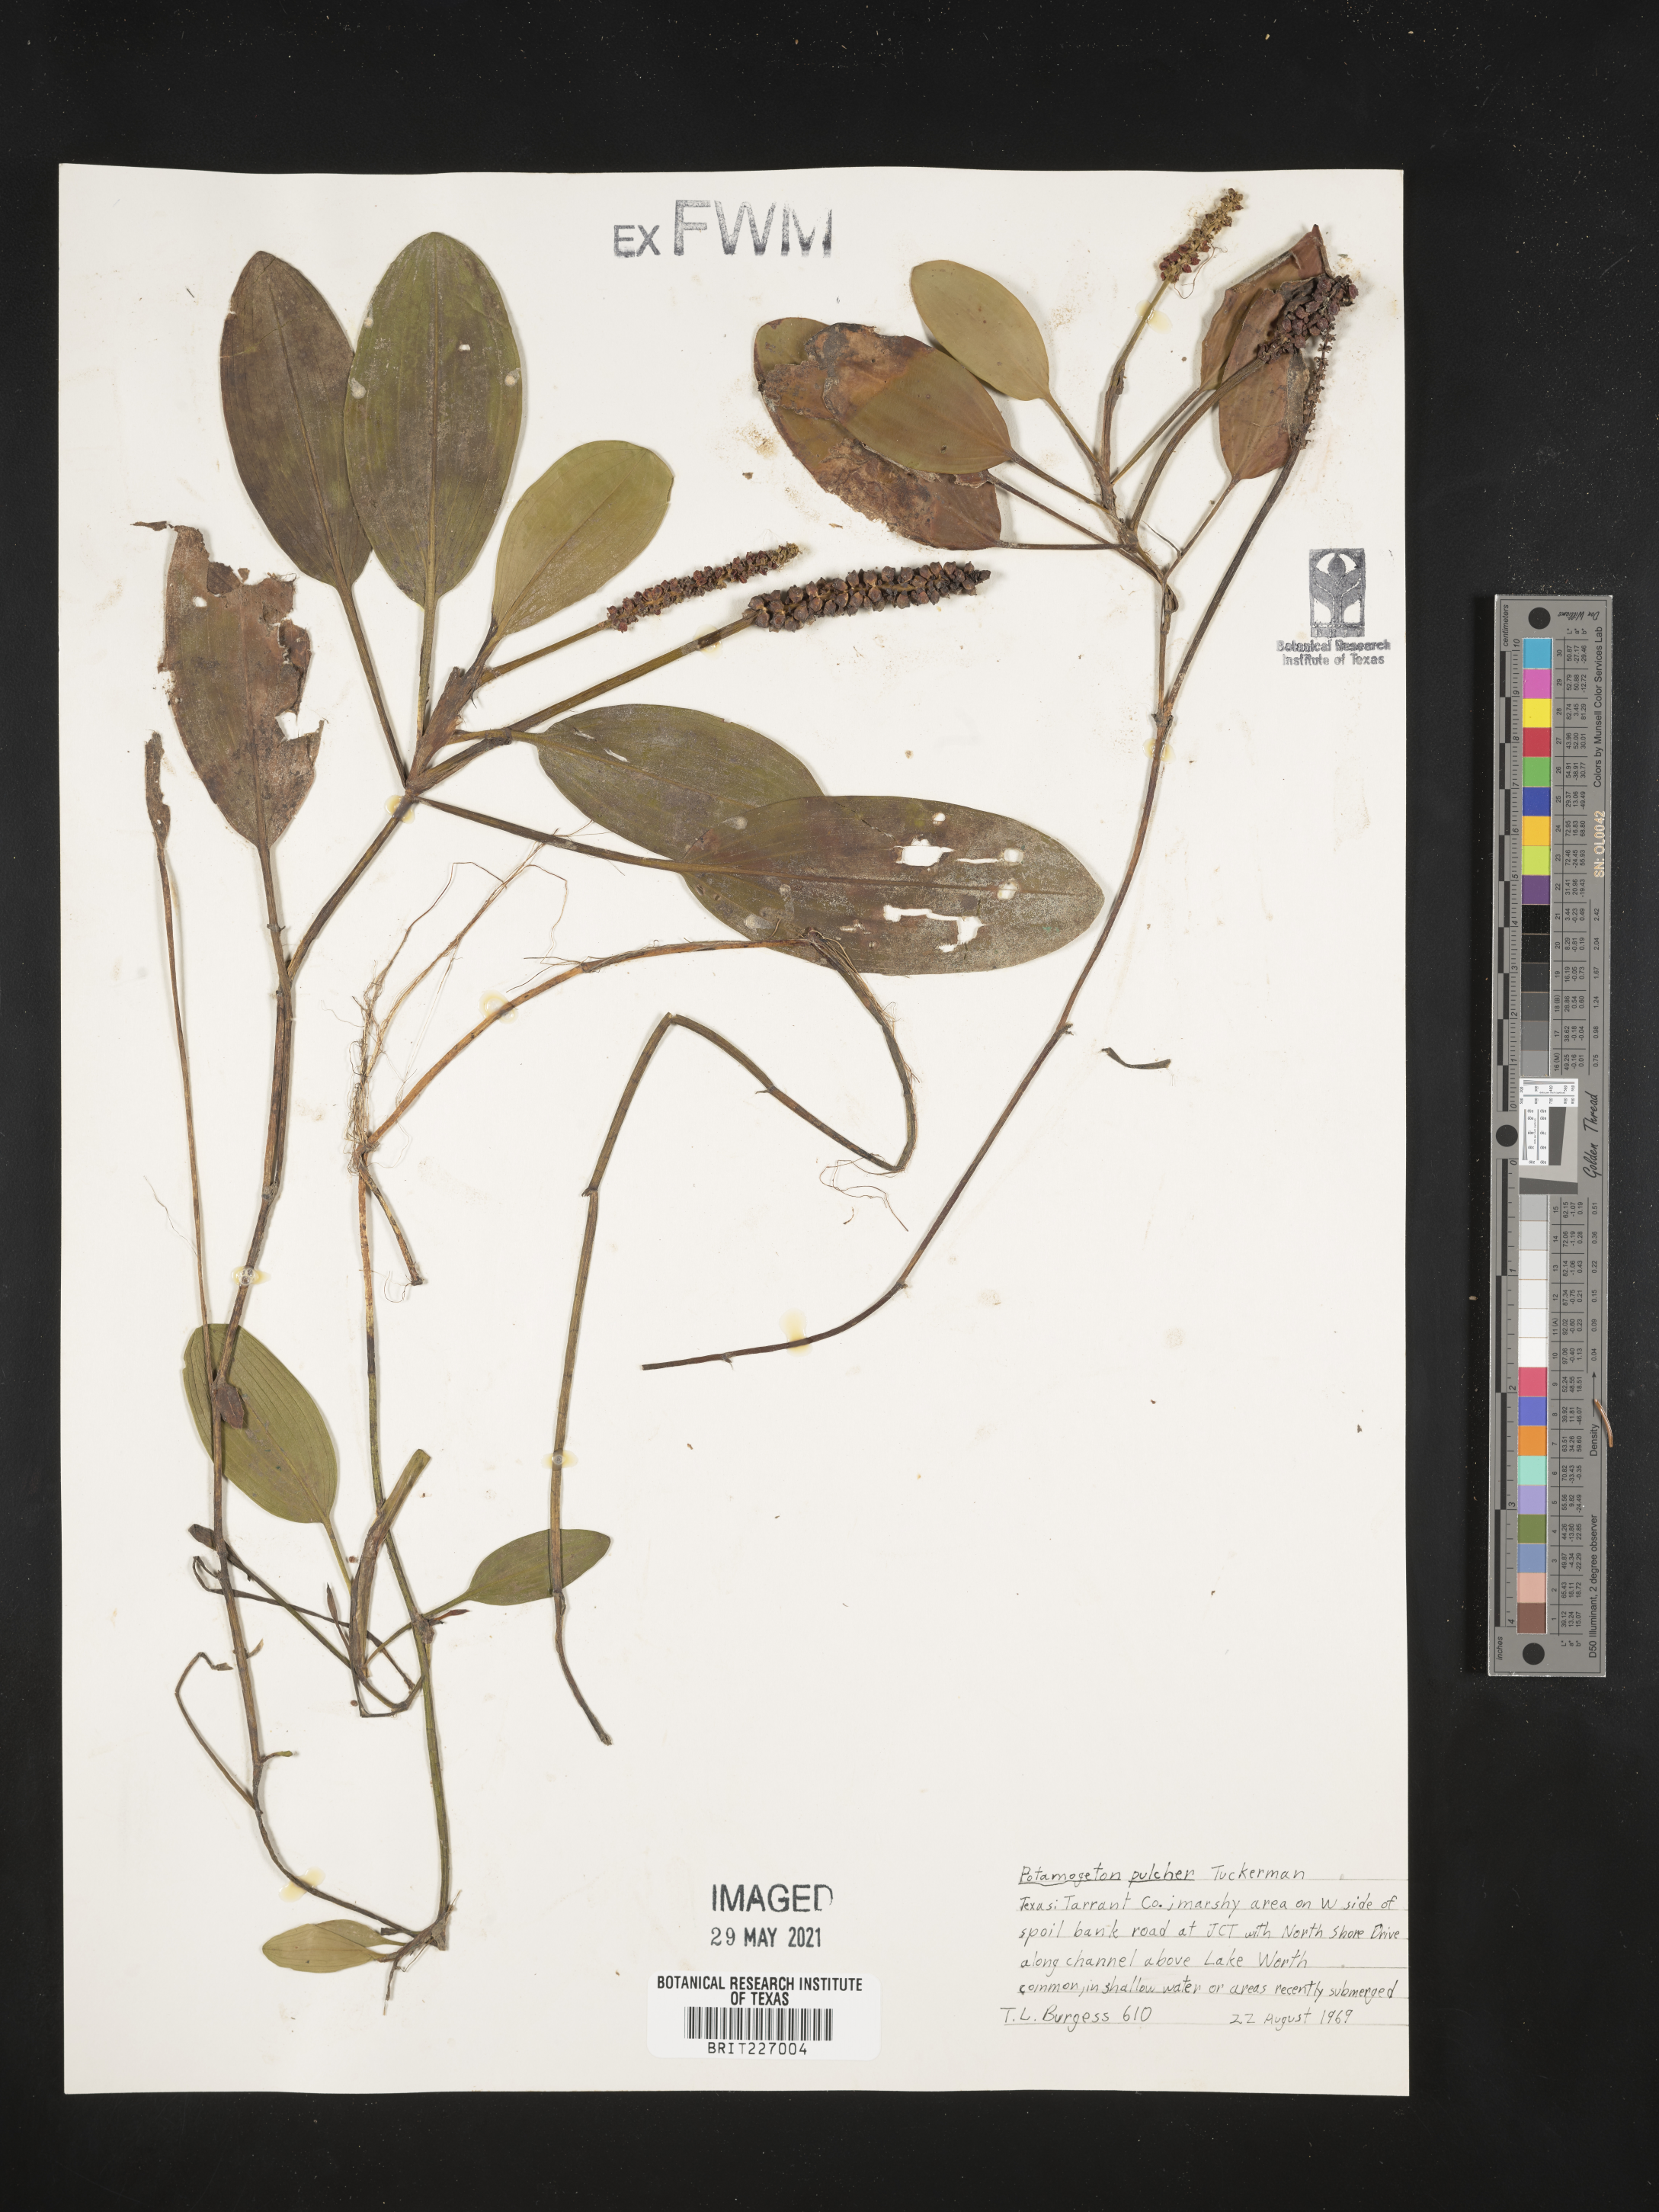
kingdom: Plantae
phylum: Tracheophyta
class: Liliopsida
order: Alismatales
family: Potamogetonaceae
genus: Potamogeton
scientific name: Potamogeton pulcher
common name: Heart-leaved pondweed
